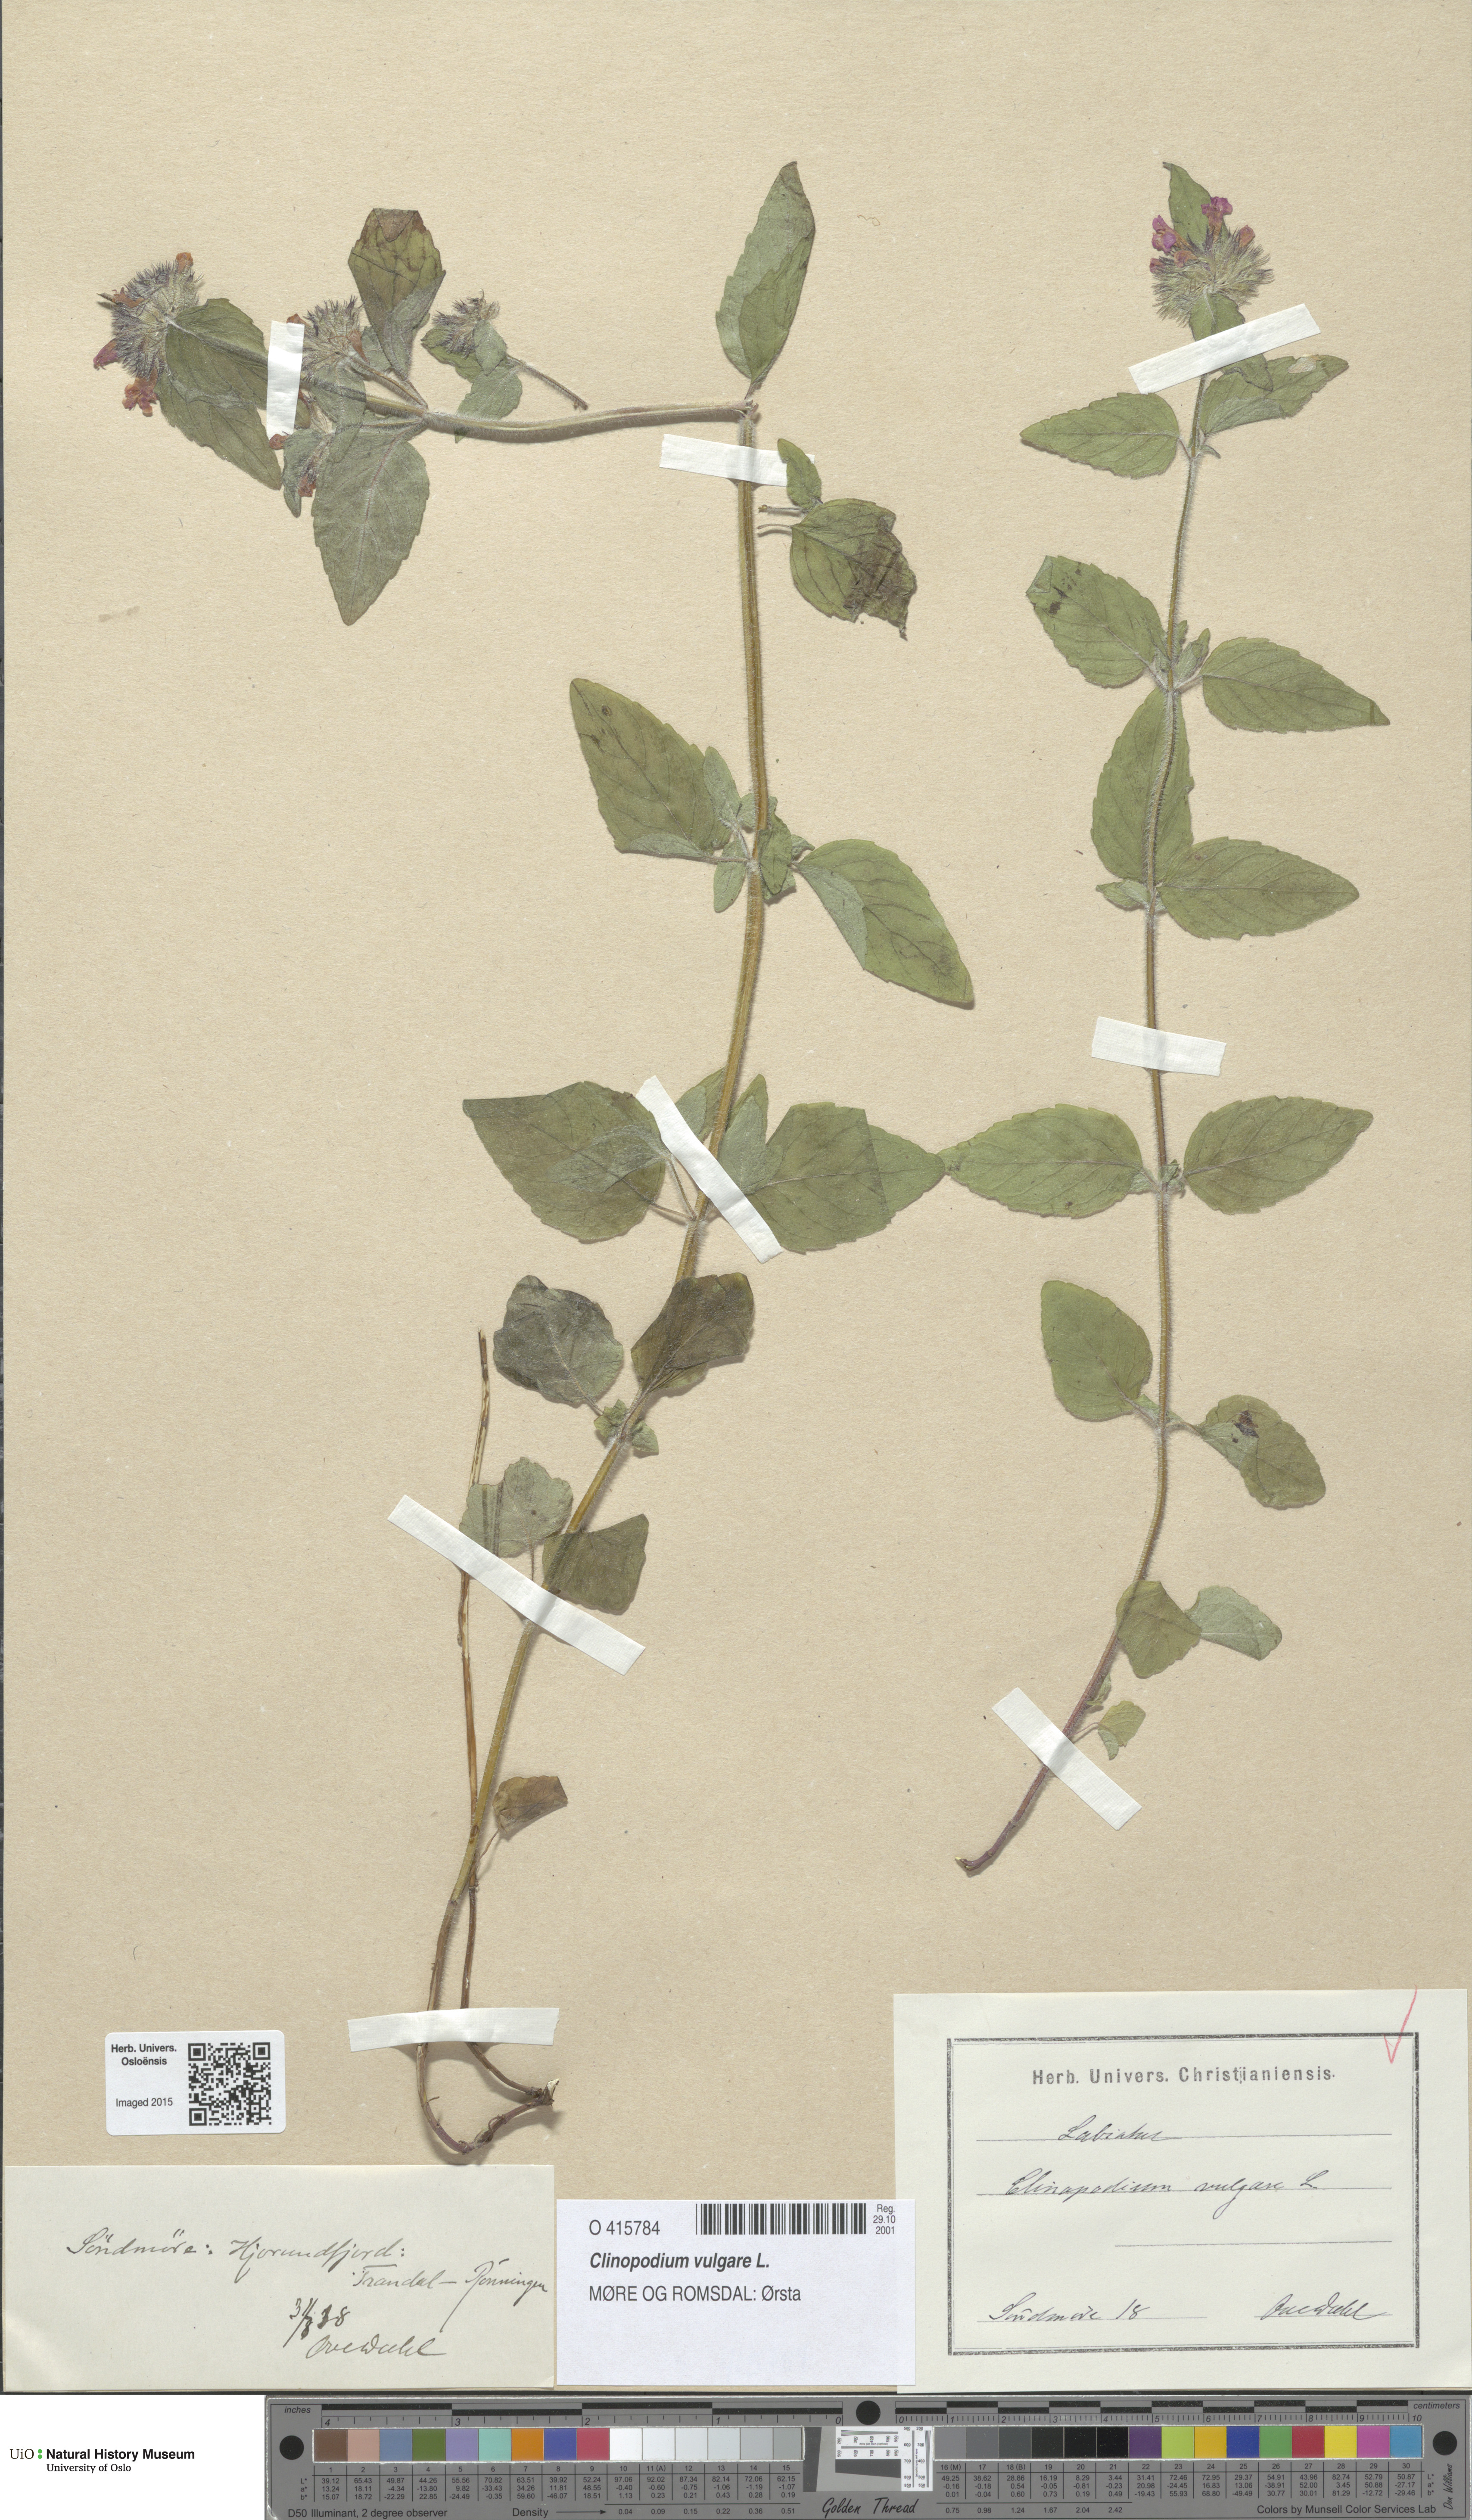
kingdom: Plantae
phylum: Tracheophyta
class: Magnoliopsida
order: Lamiales
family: Lamiaceae
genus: Clinopodium
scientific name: Clinopodium vulgare
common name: Wild basil
